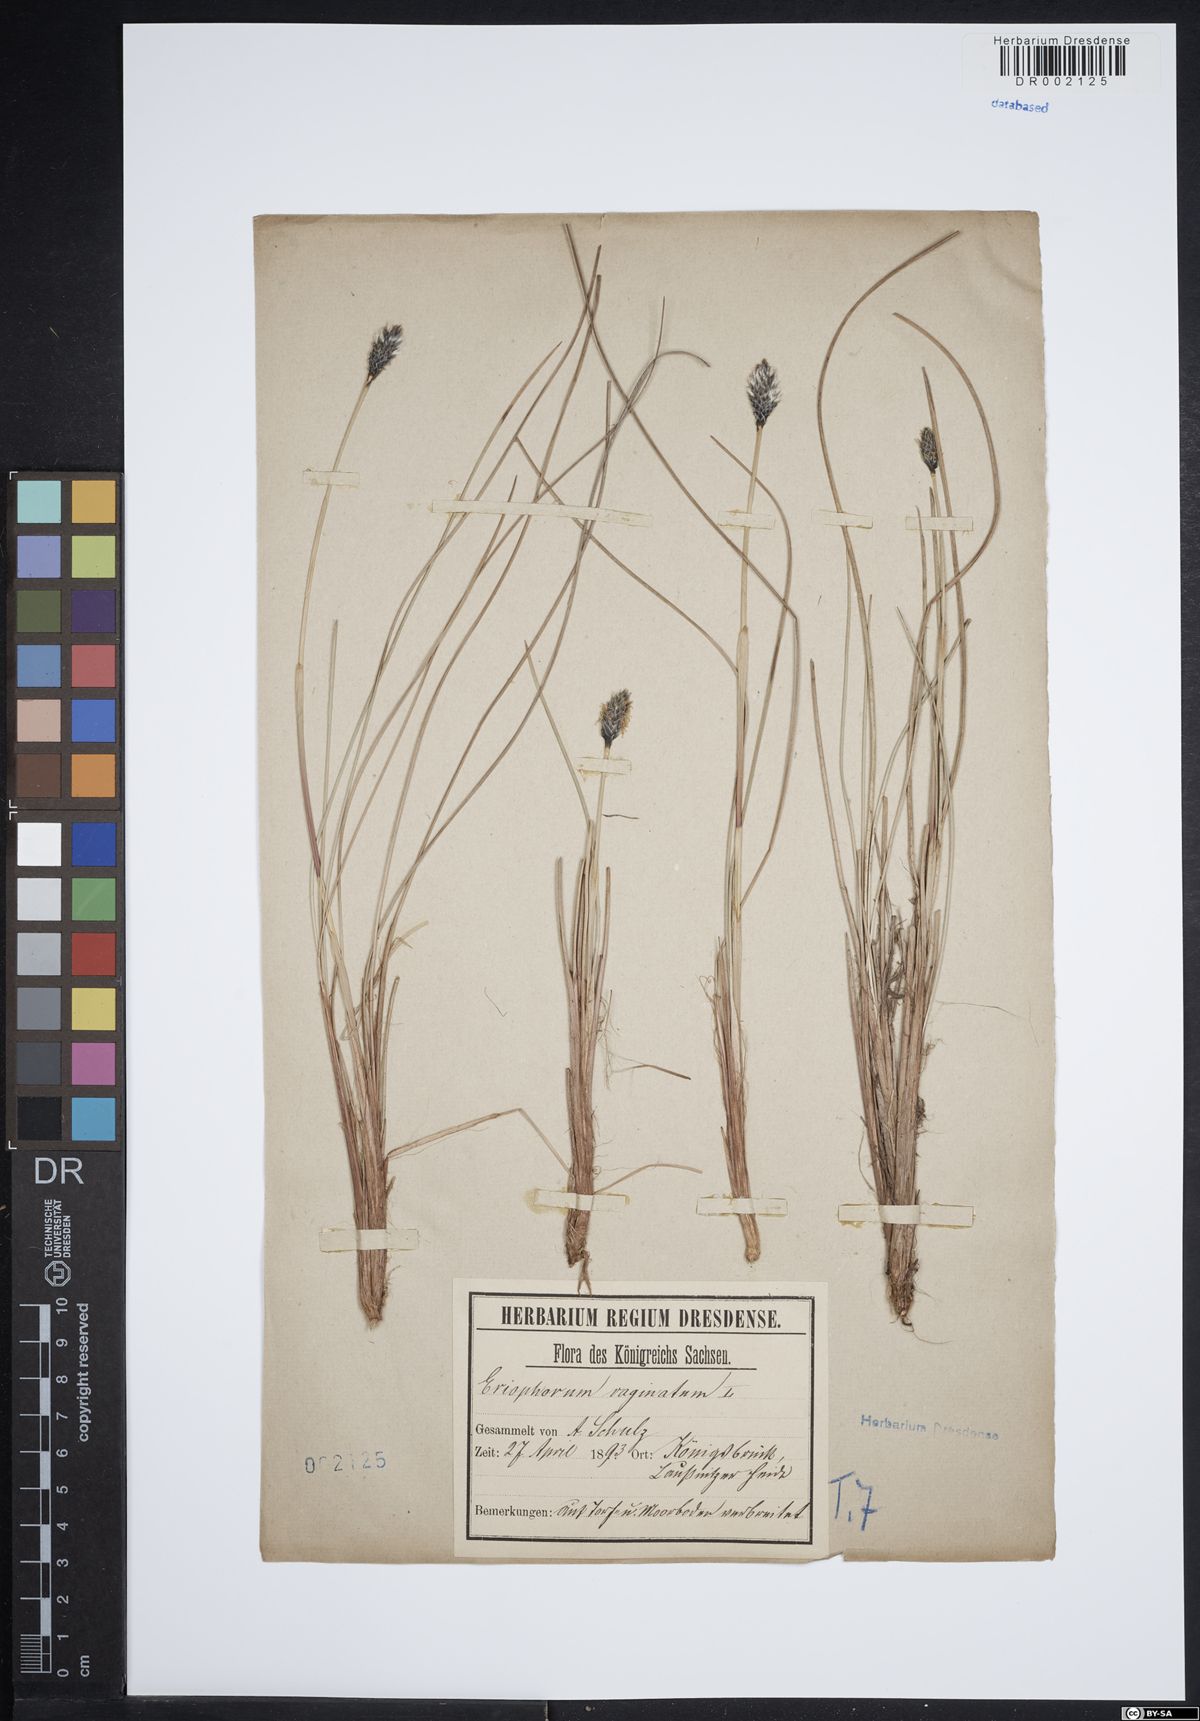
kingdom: Plantae
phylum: Tracheophyta
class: Liliopsida
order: Poales
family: Cyperaceae
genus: Eriophorum
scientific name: Eriophorum vaginatum
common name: Hare's-tail cottongrass
